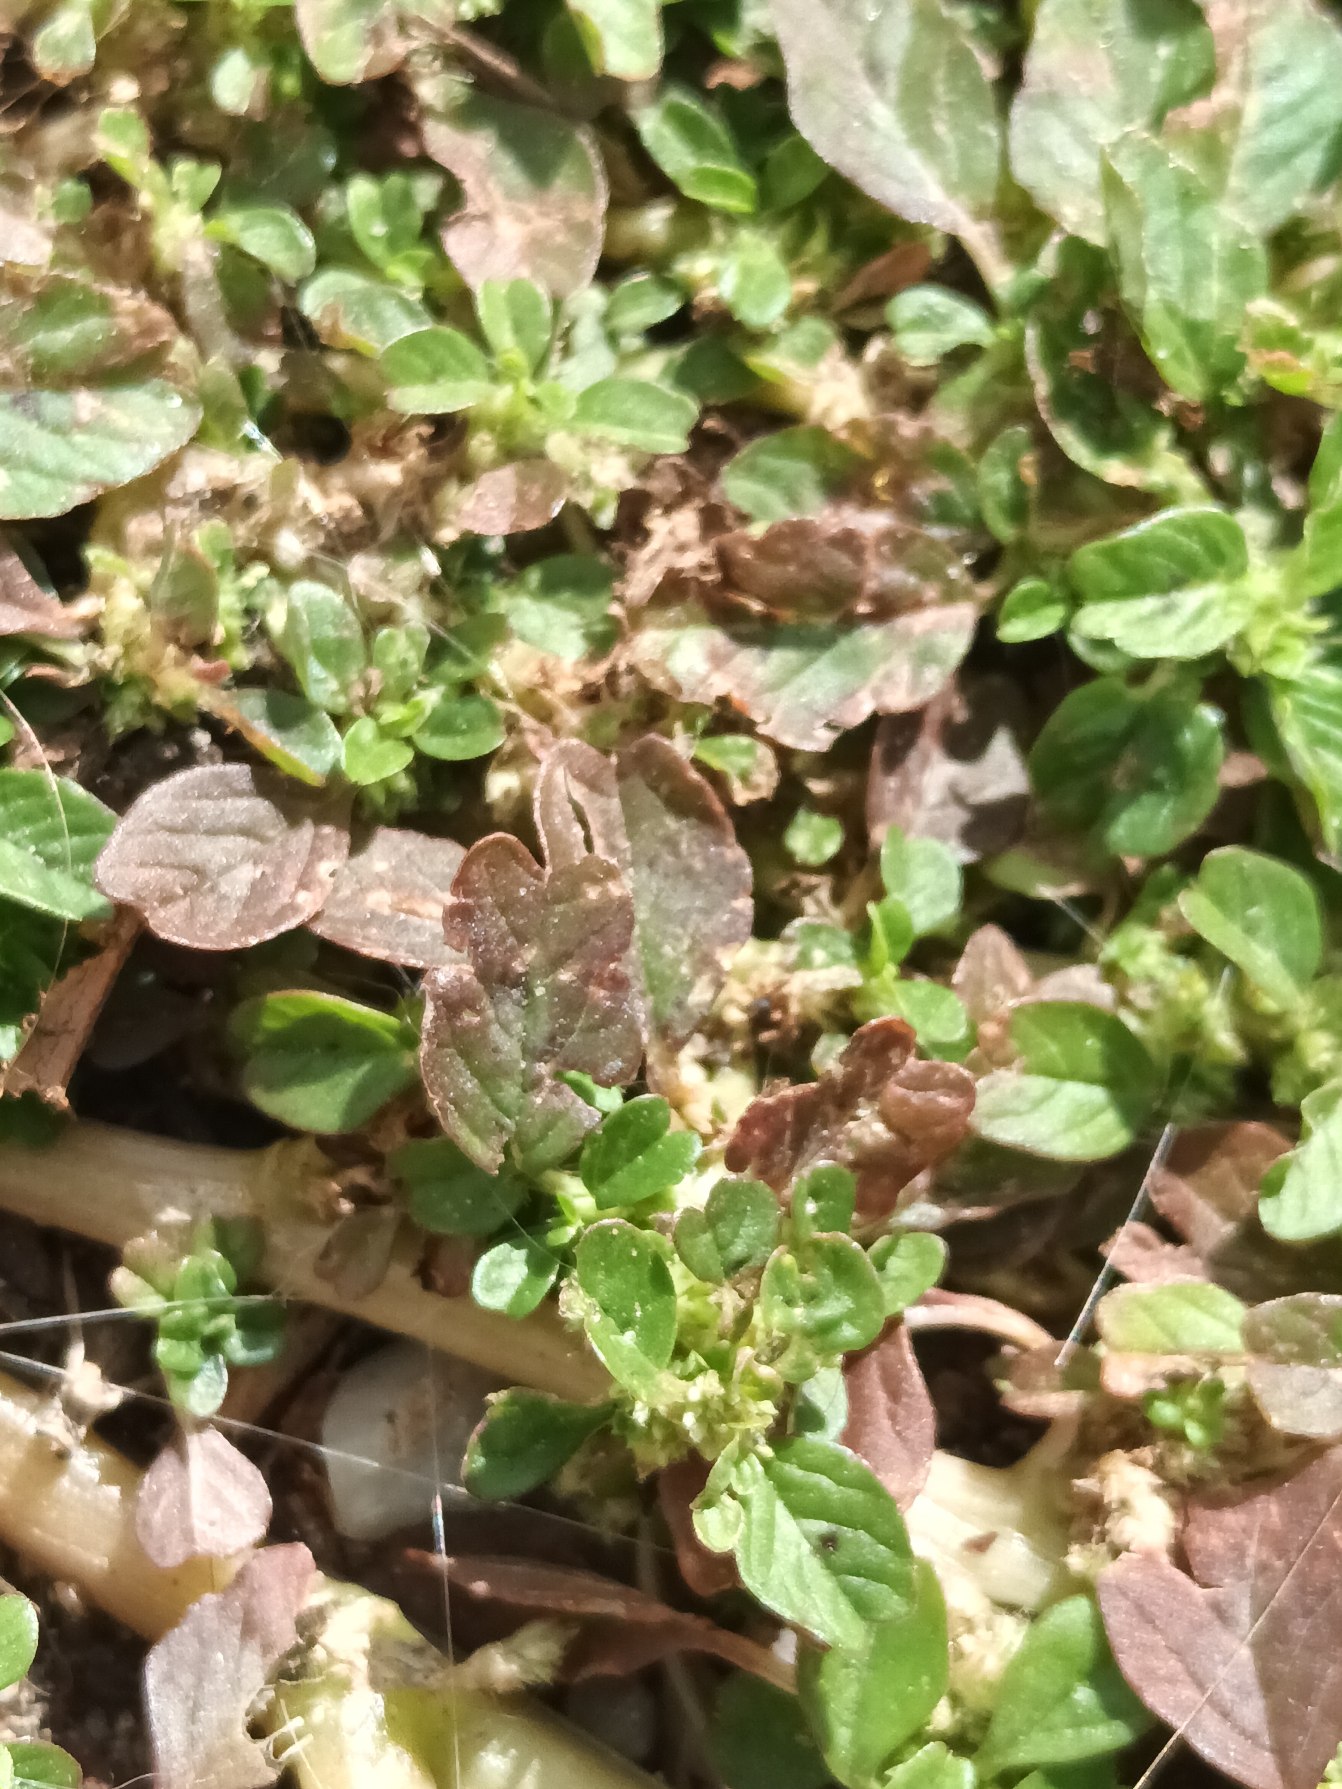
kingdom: Plantae
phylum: Tracheophyta
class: Magnoliopsida
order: Caryophyllales
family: Amaranthaceae
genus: Amaranthus
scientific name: Amaranthus blitum
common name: Plet-amarant
